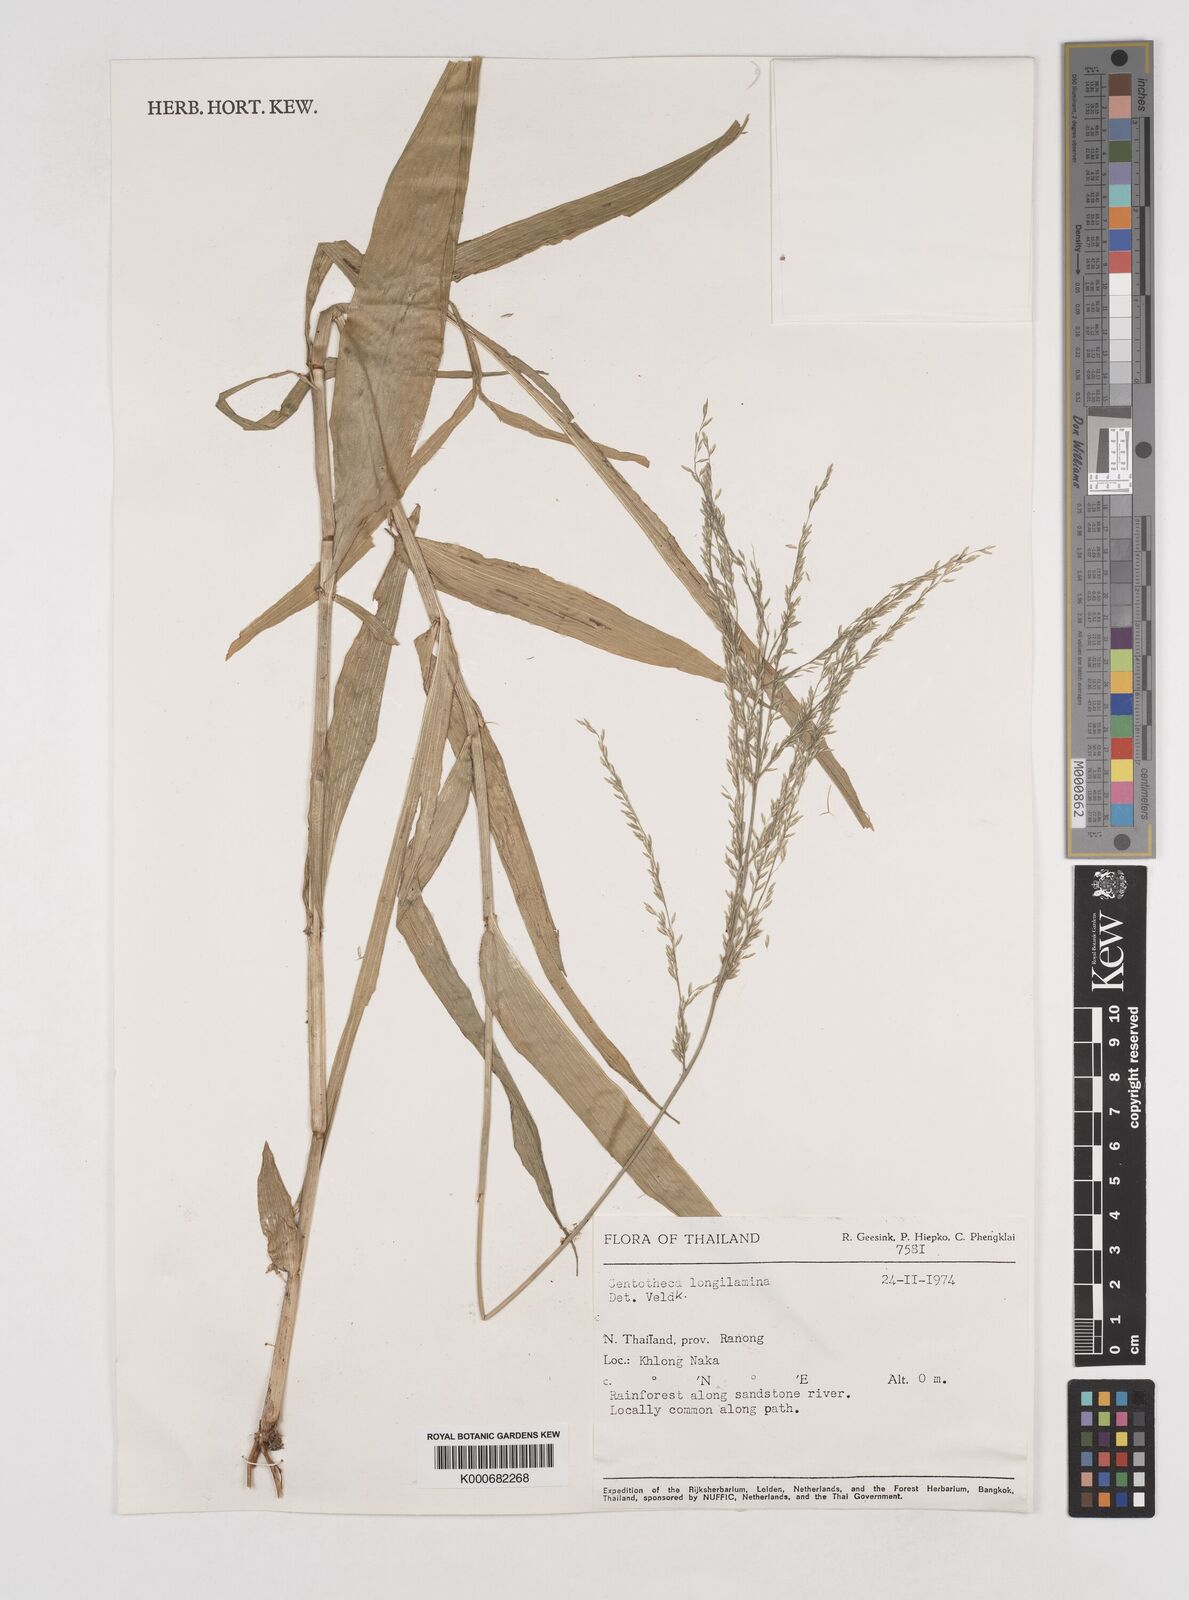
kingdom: Plantae
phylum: Tracheophyta
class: Liliopsida
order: Poales
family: Poaceae
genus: Centotheca
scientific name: Centotheca lappacea
